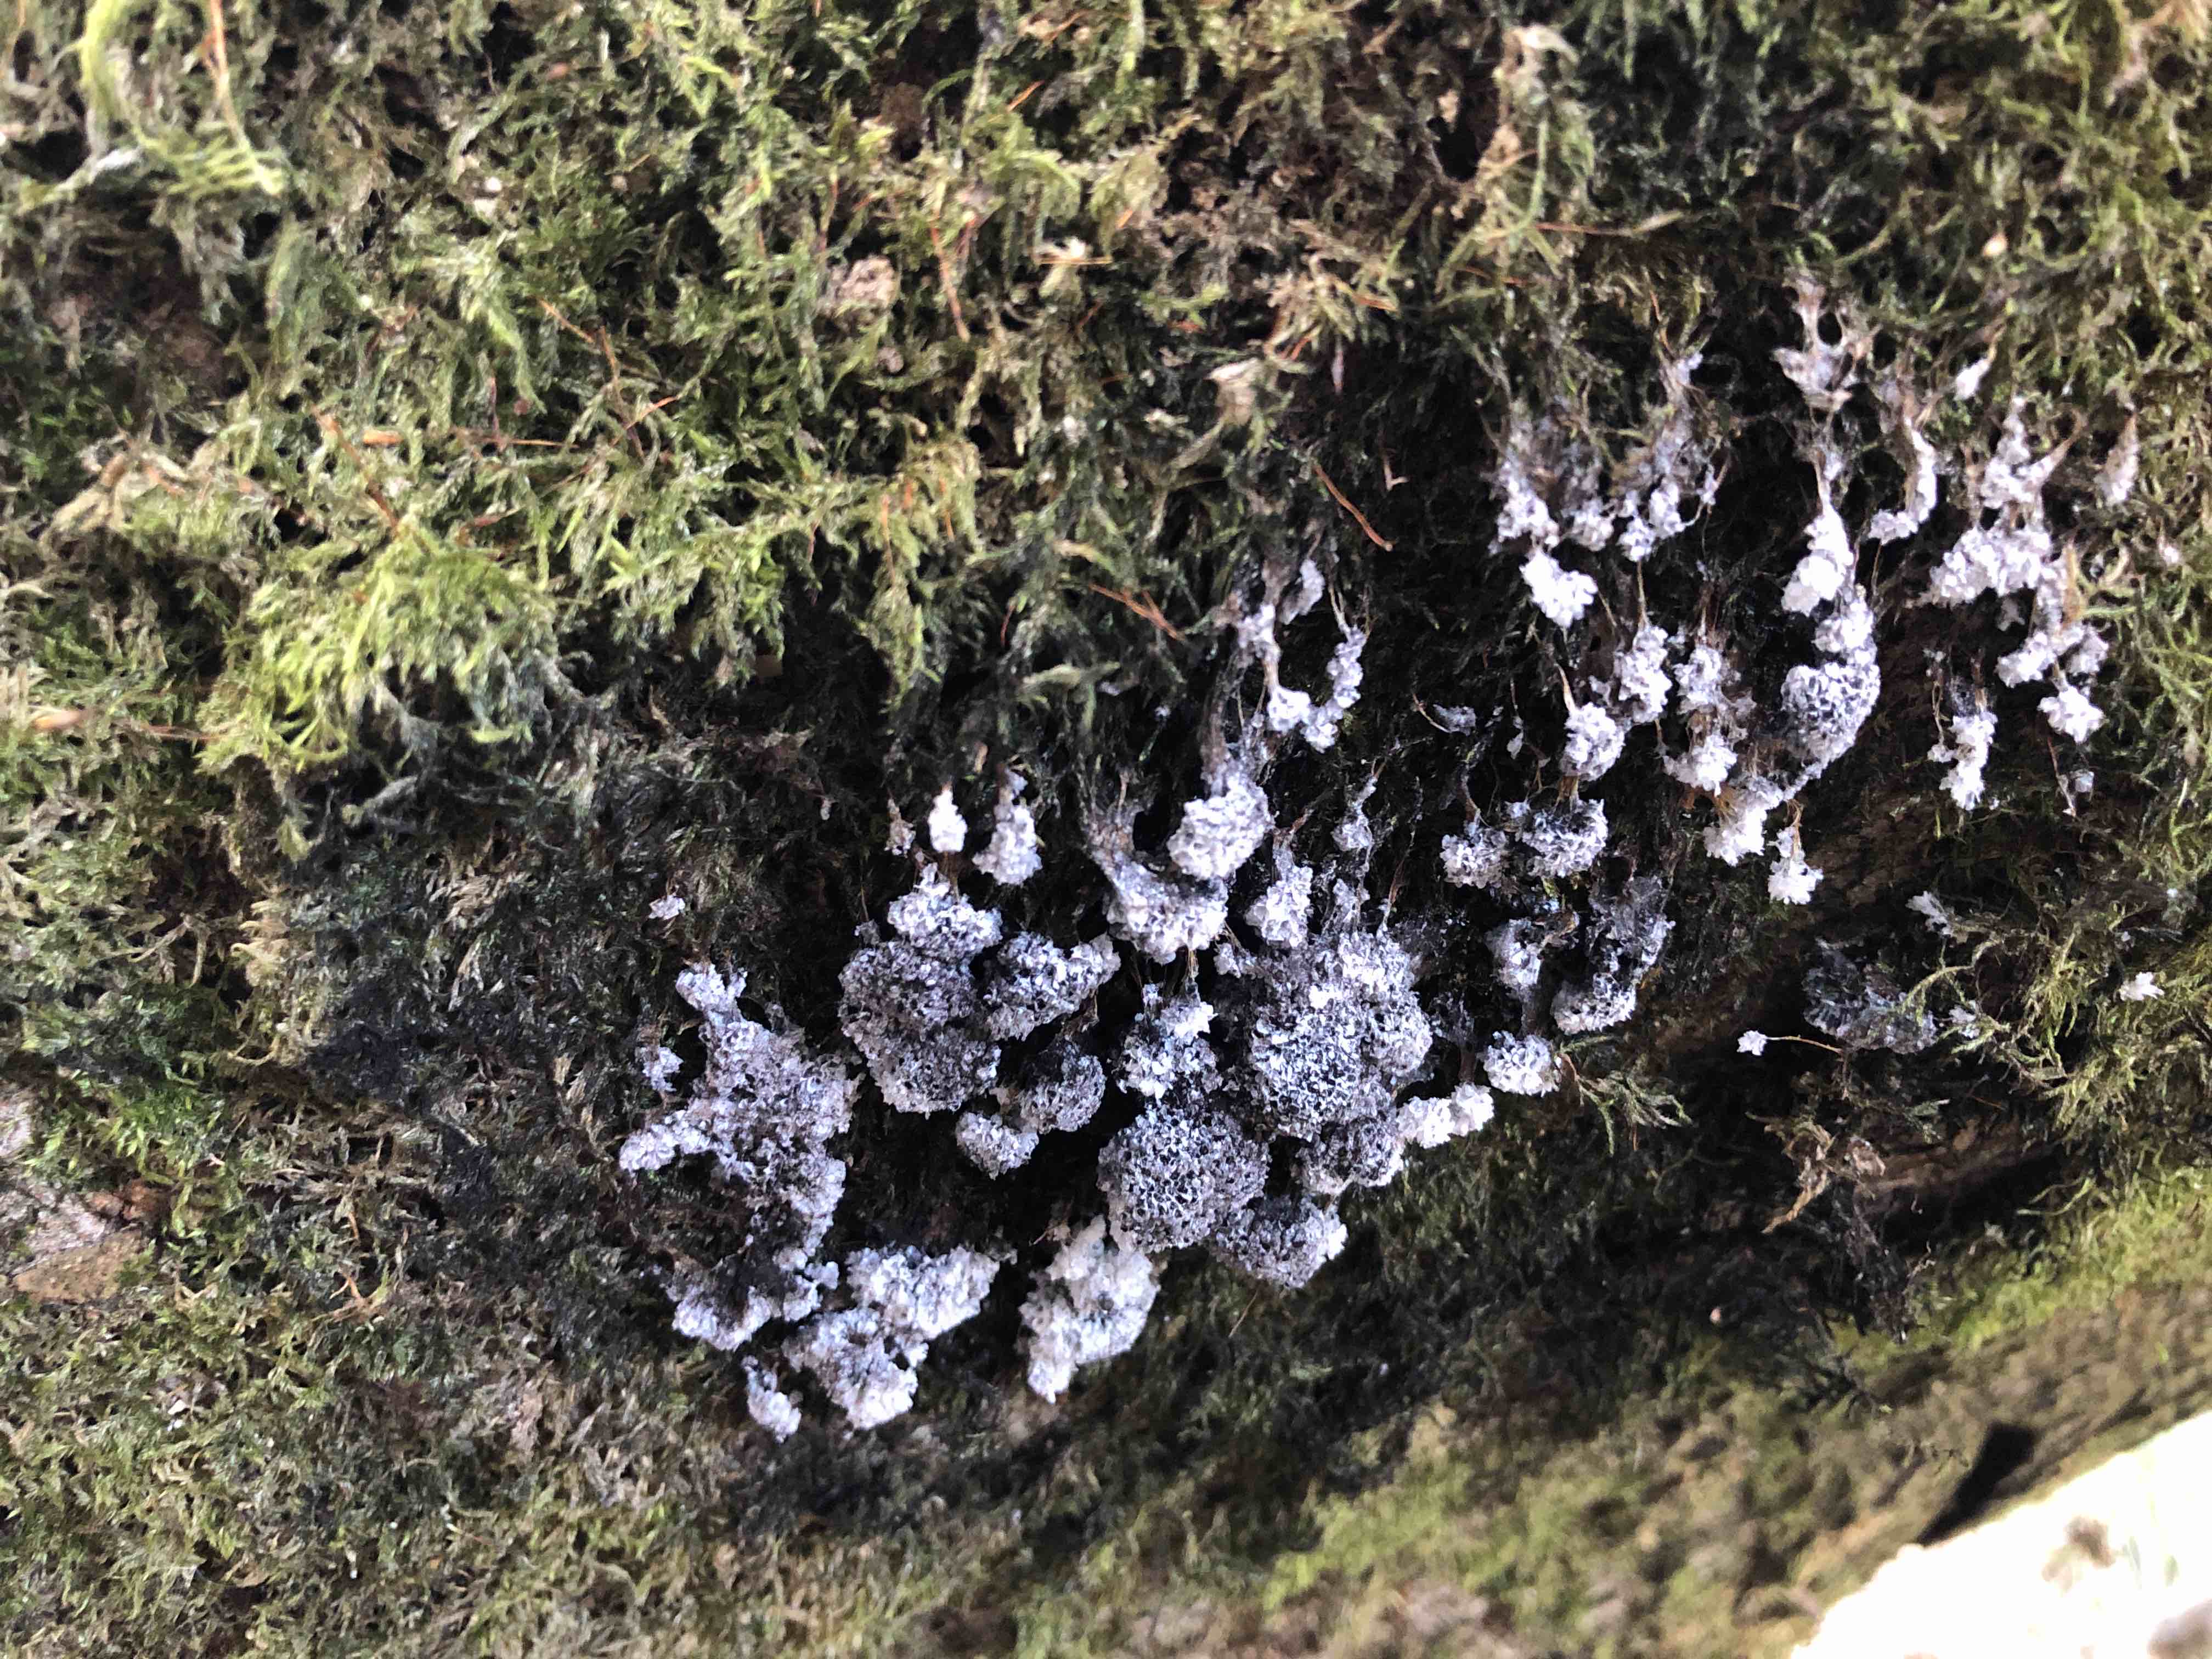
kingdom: Protozoa
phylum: Mycetozoa
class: Myxomycetes
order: Physarales
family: Physaraceae
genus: Badhamia
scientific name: Badhamia utricularis
